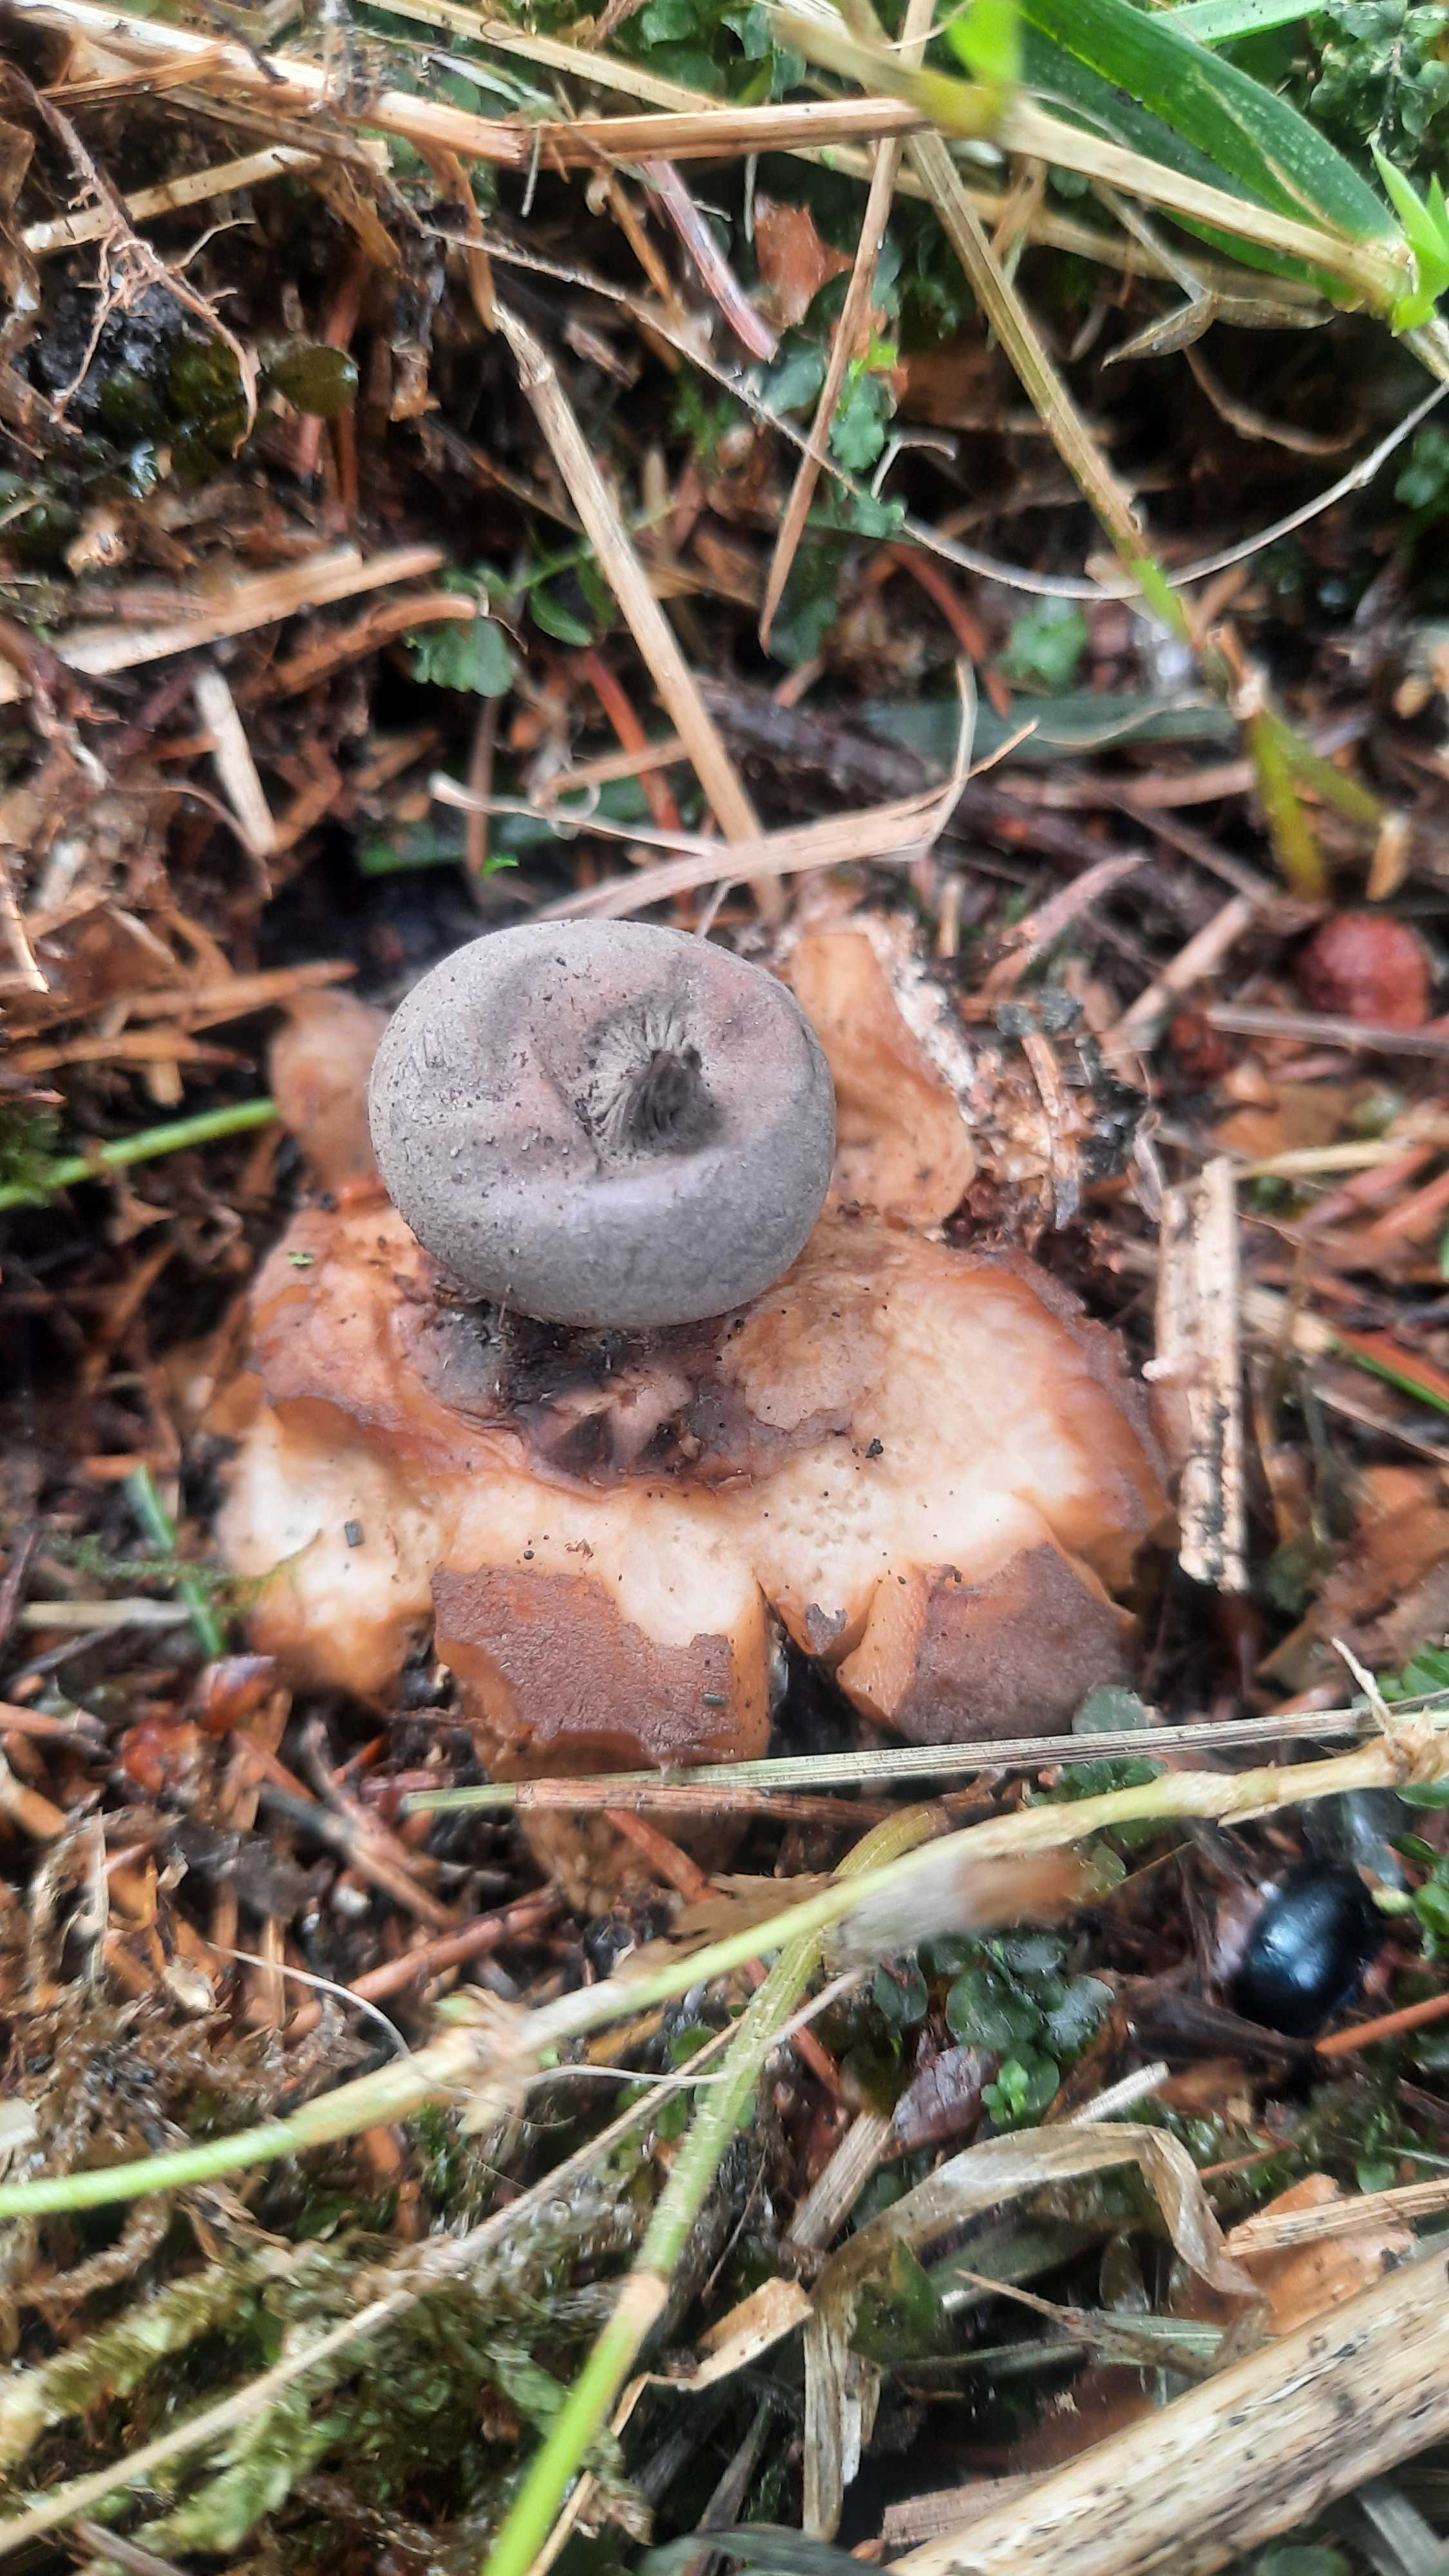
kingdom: Fungi
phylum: Basidiomycota
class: Agaricomycetes
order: Geastrales
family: Geastraceae
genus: Geastrum
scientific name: Geastrum pectinatum
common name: stilket stjernebold
